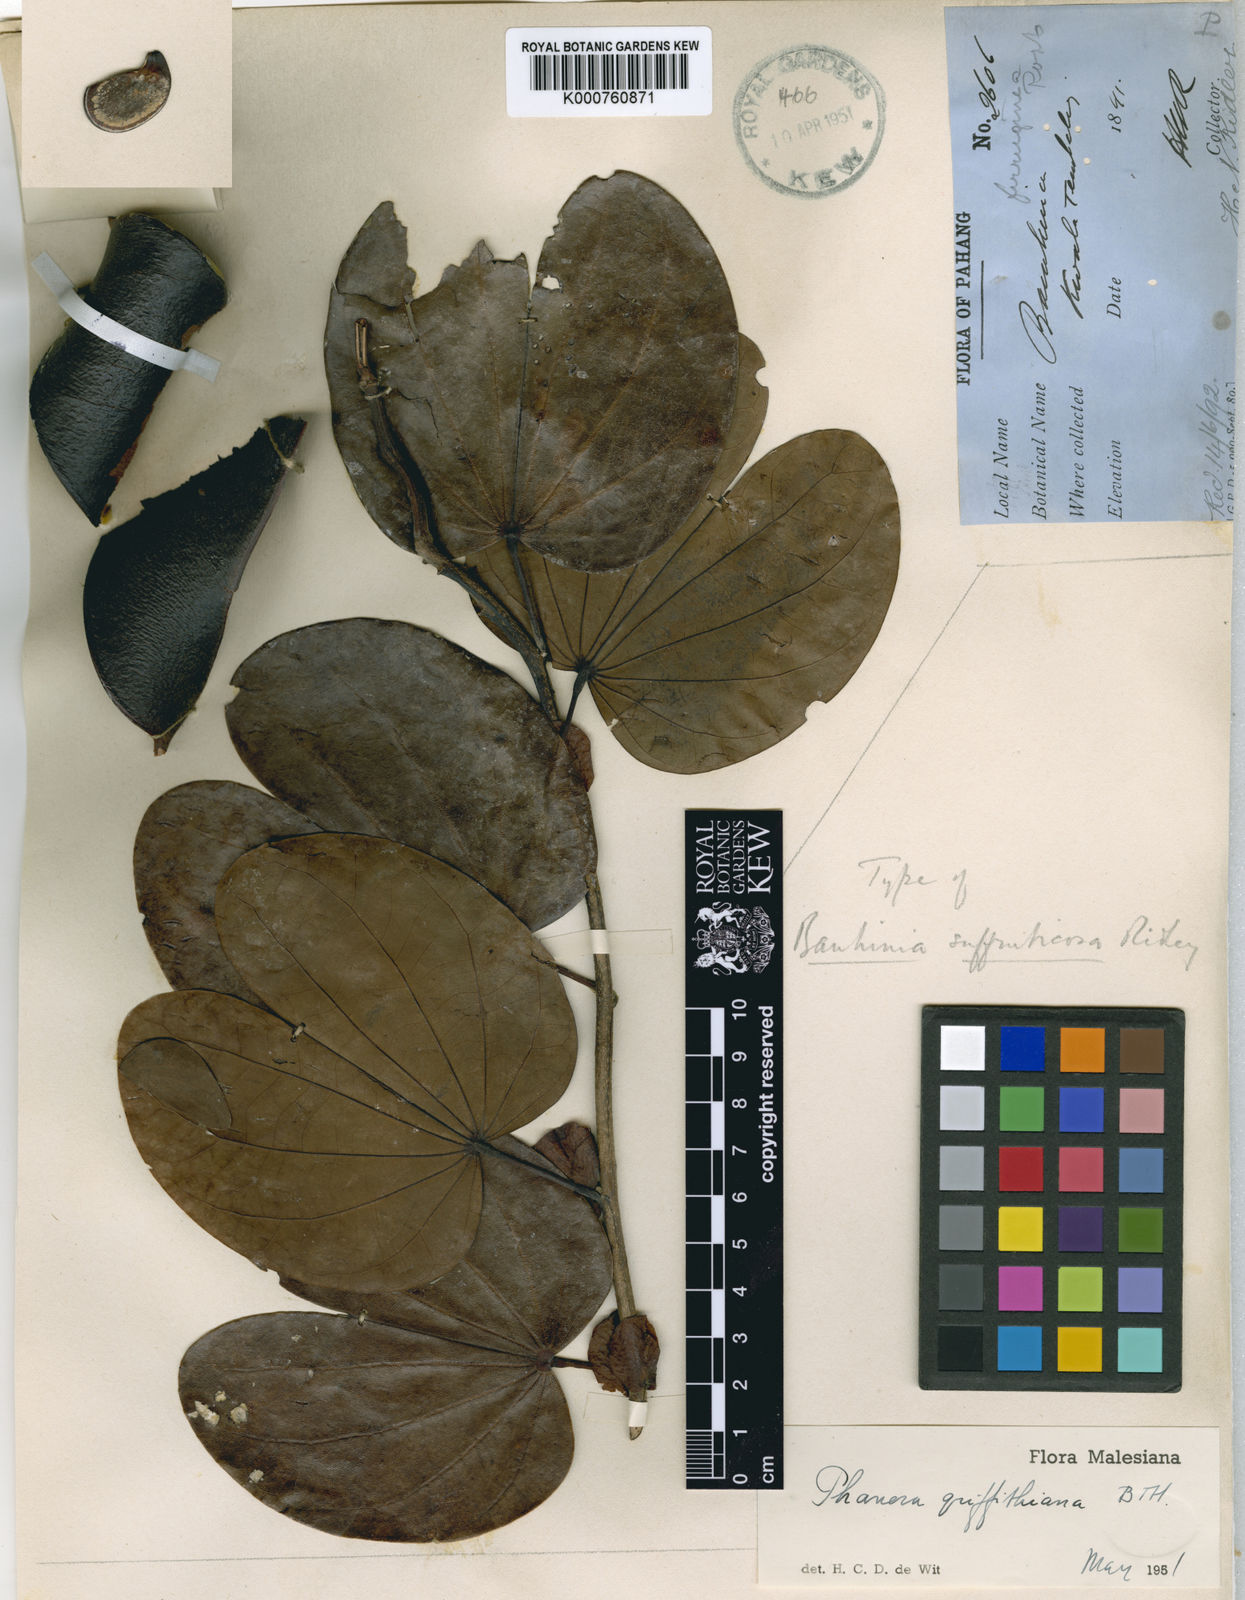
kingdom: Plantae
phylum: Tracheophyta
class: Magnoliopsida
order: Fabales
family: Fabaceae
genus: Phanera
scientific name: Phanera ferruginea
